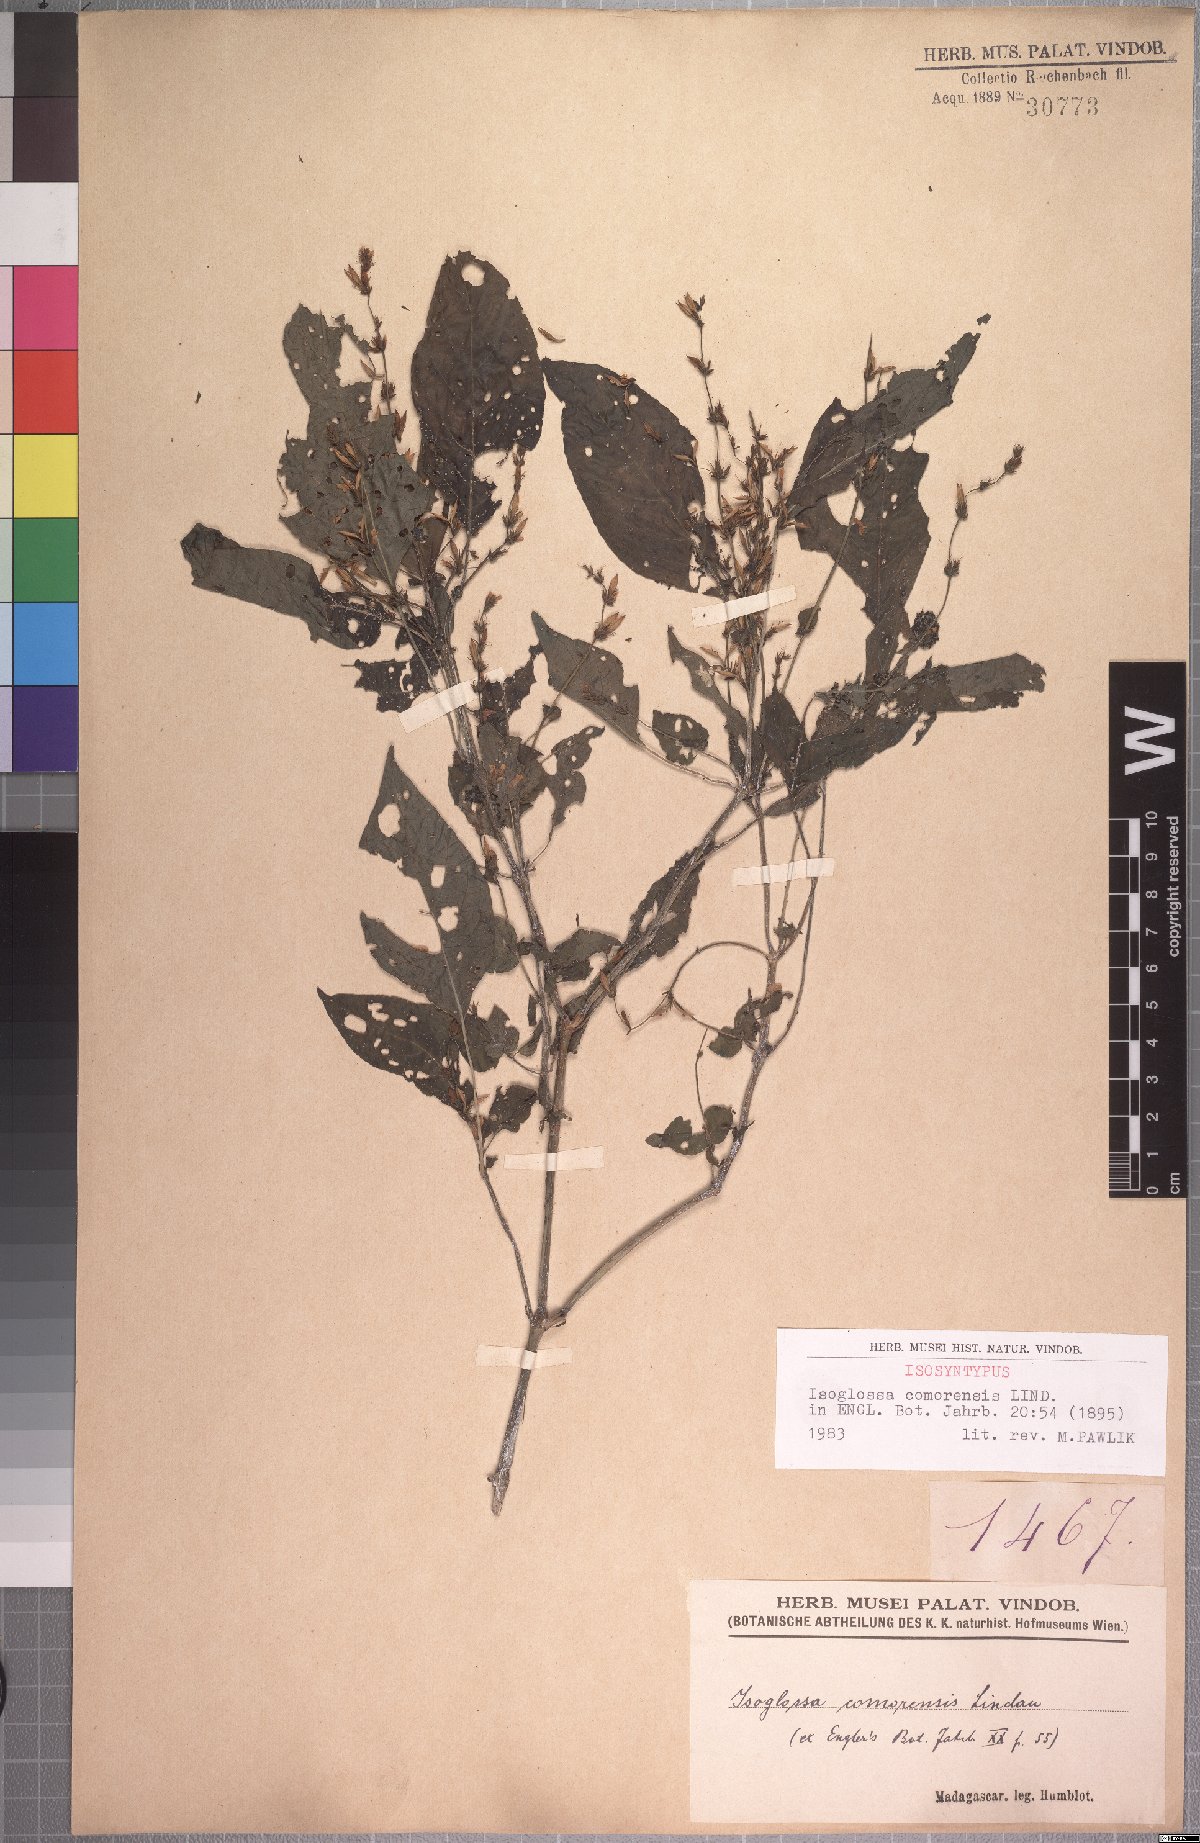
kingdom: Plantae
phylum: Tracheophyta
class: Magnoliopsida
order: Lamiales
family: Acanthaceae
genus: Isoglossa
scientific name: Isoglossa comorensis
